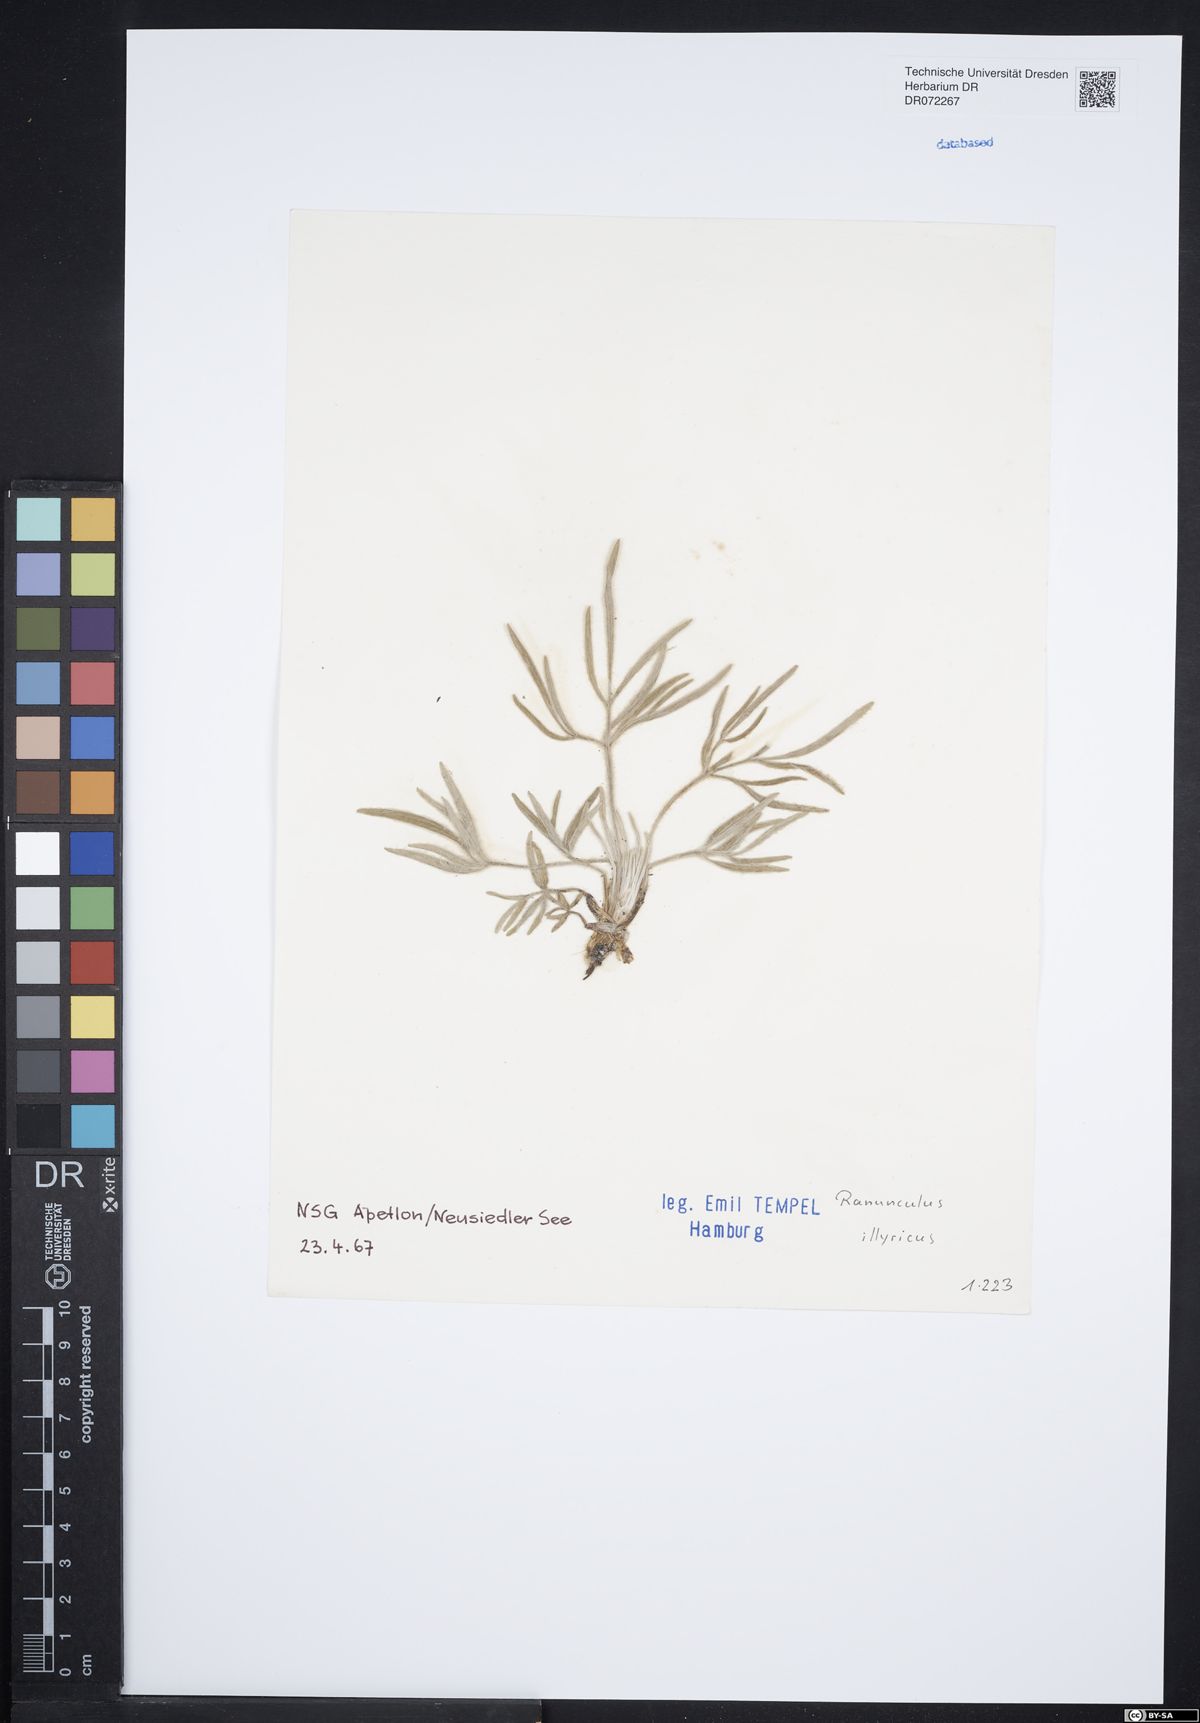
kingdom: Plantae
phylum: Tracheophyta
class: Magnoliopsida
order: Ranunculales
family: Ranunculaceae
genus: Ranunculus
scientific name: Ranunculus illyricus
